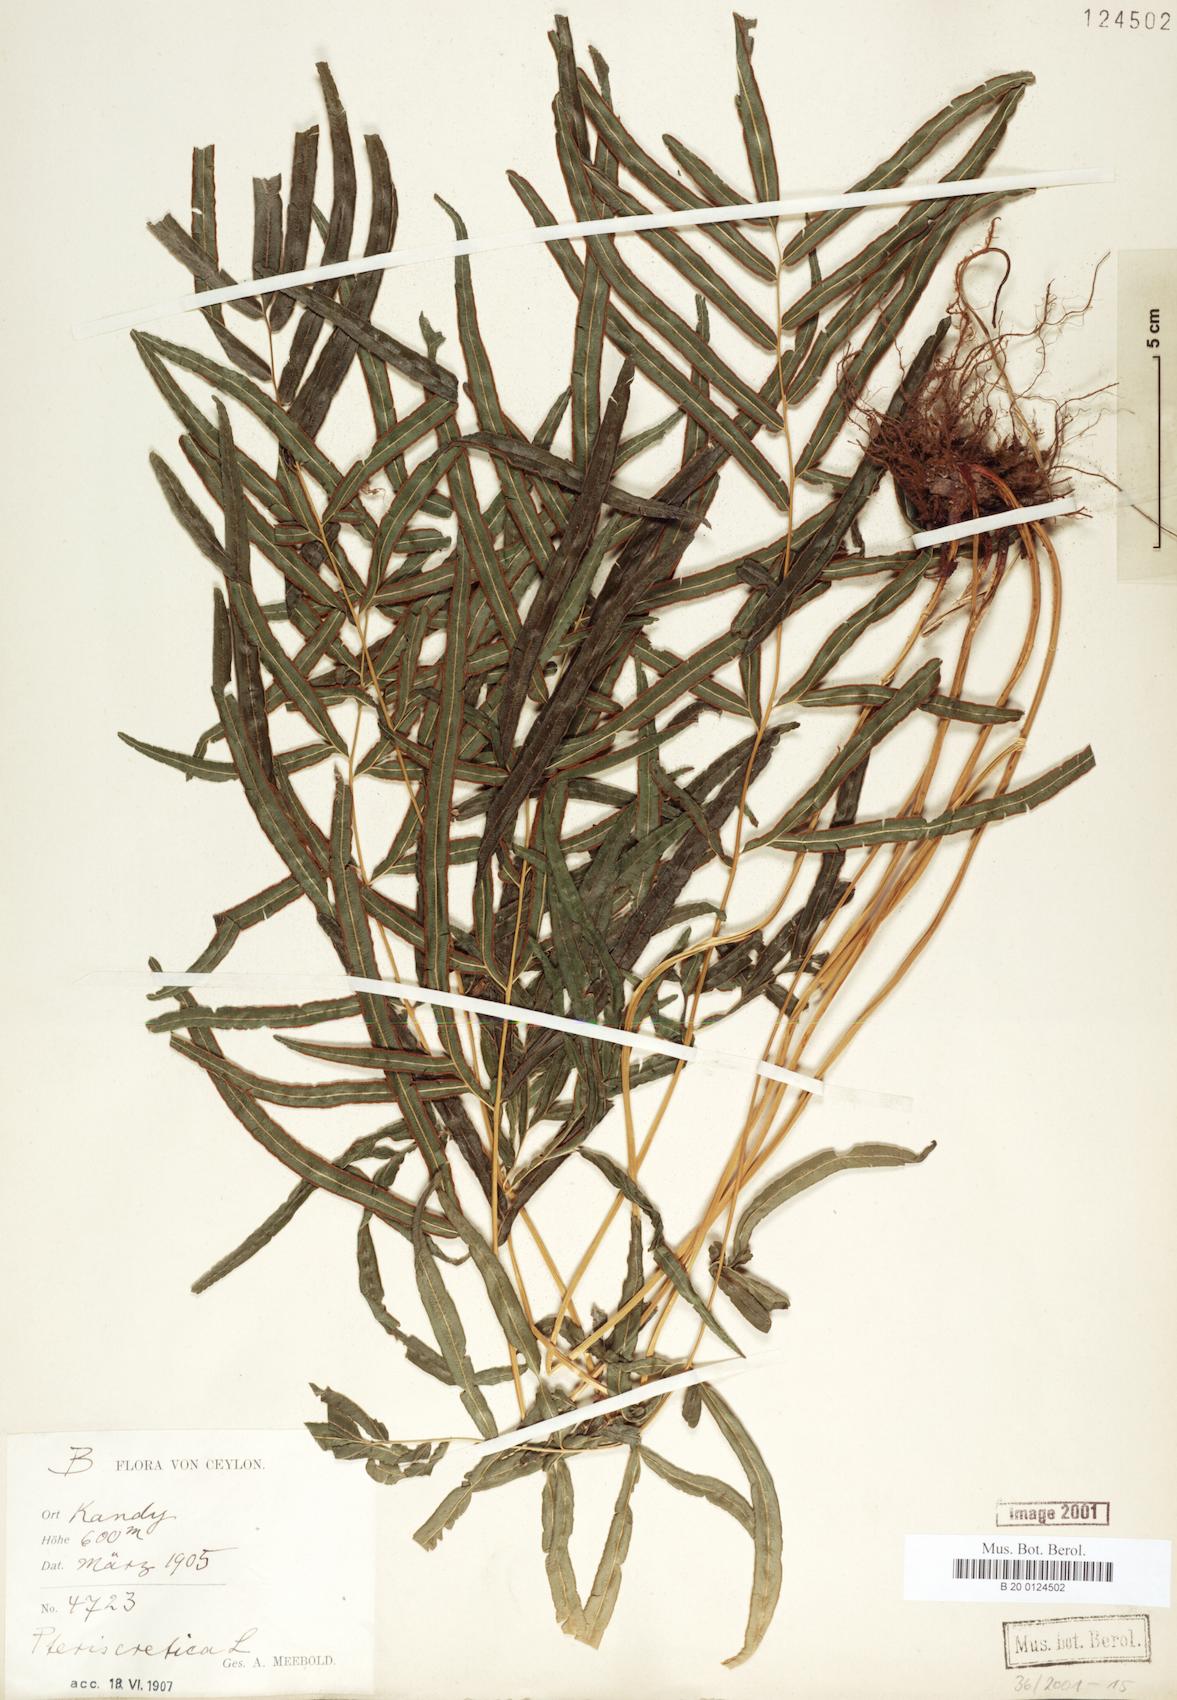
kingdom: Plantae
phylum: Tracheophyta
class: Polypodiopsida
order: Polypodiales
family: Pteridaceae
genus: Pteris
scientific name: Pteris cretica
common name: Ribbon fern
